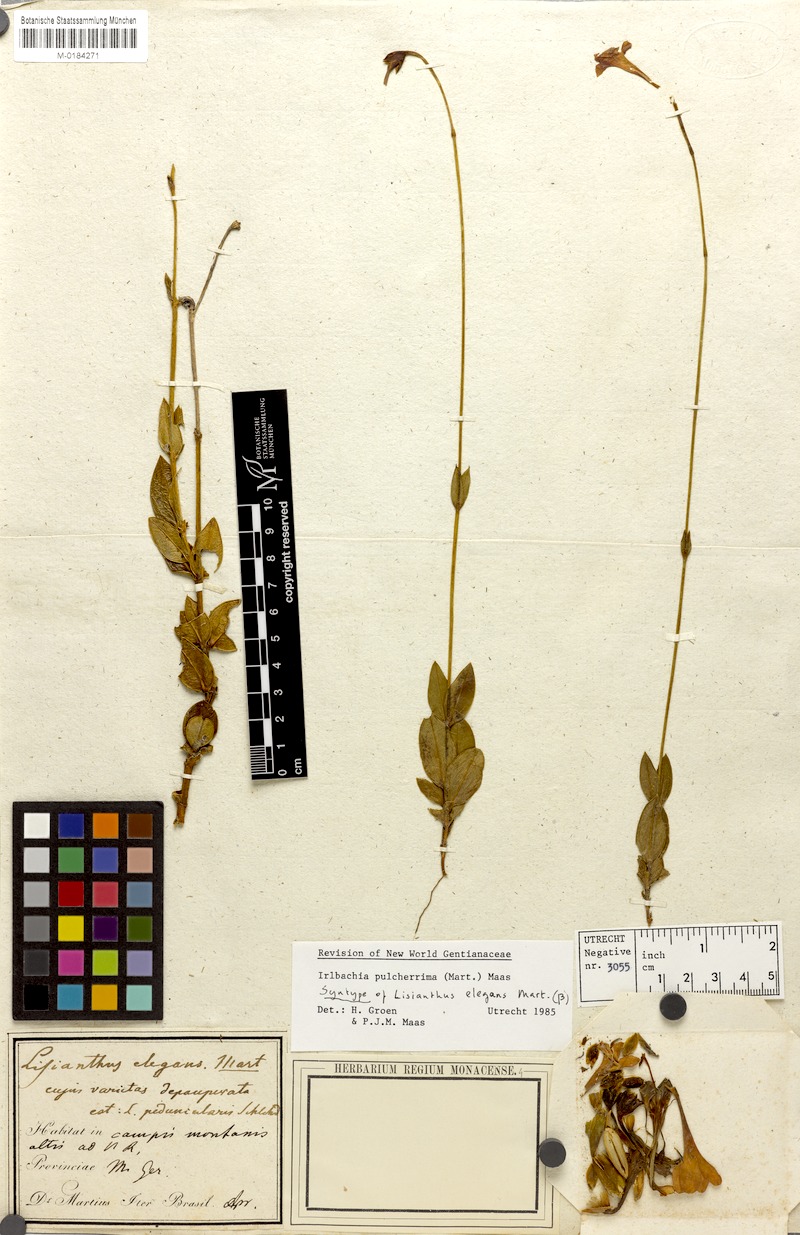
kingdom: Plantae
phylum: Tracheophyta
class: Magnoliopsida
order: Gentianales
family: Gentianaceae
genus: Calolisianthus
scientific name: Calolisianthus pulcherrimus
